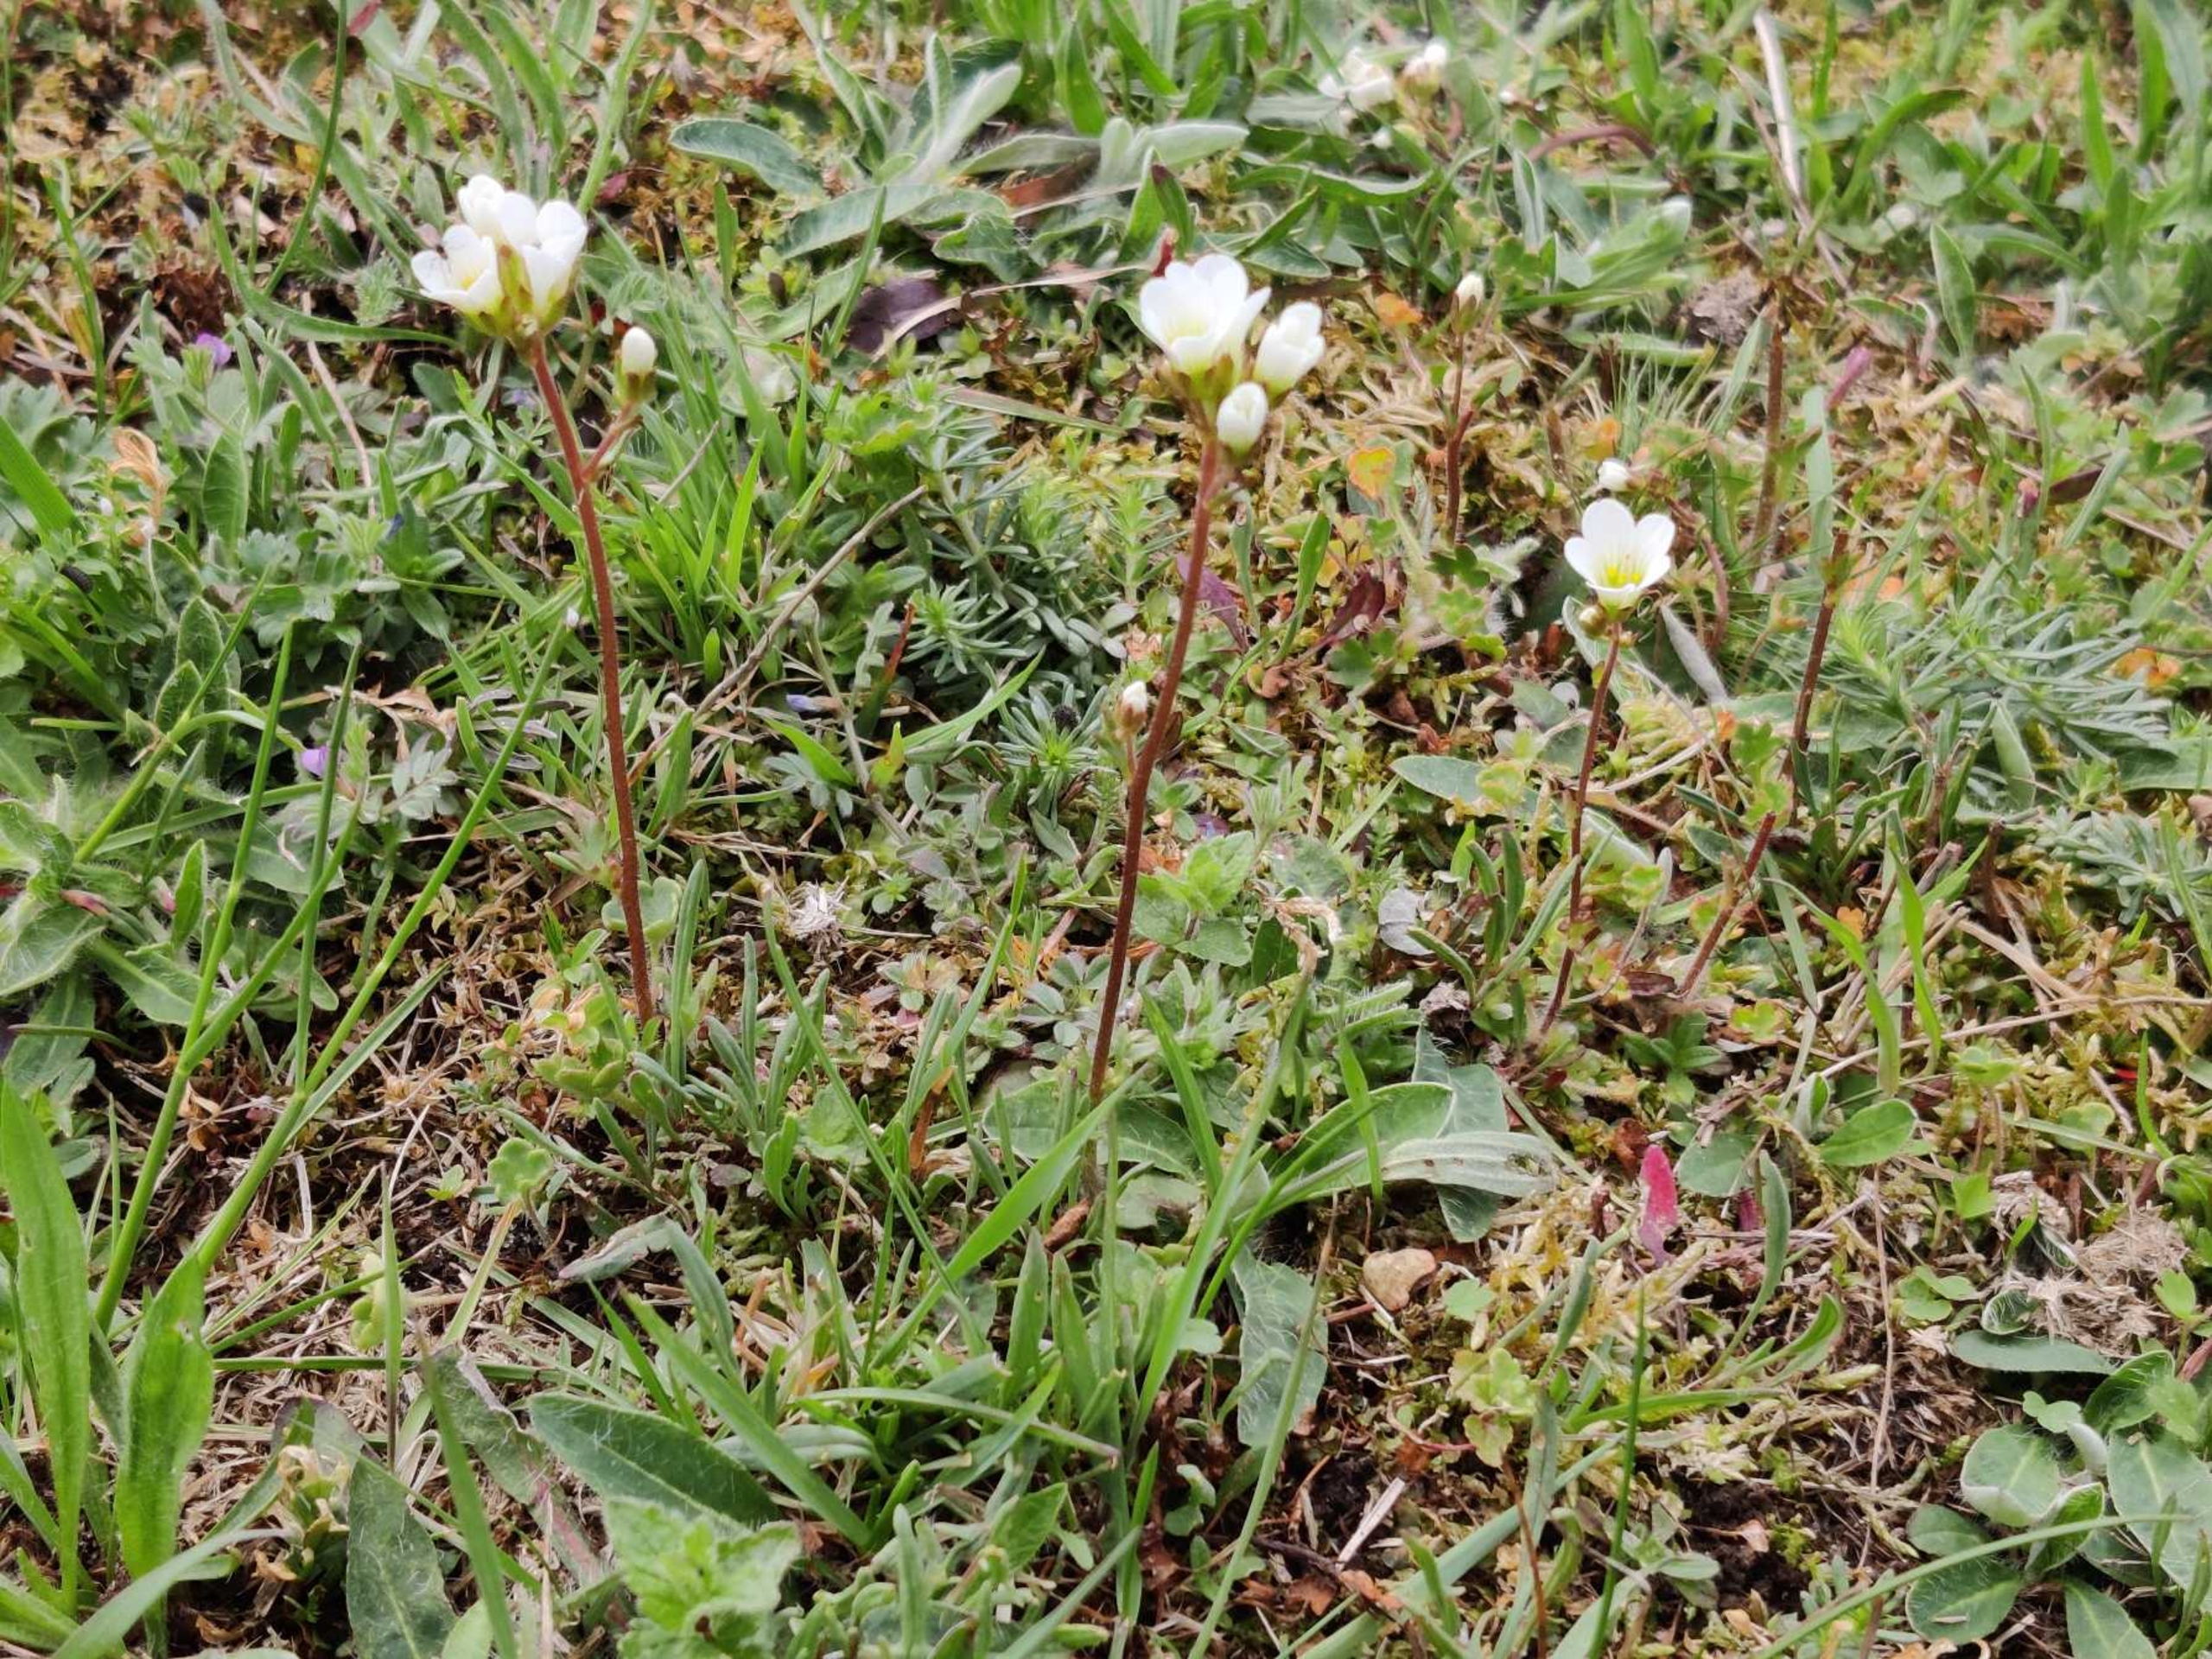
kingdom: Plantae
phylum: Tracheophyta
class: Magnoliopsida
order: Saxifragales
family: Saxifragaceae
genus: Saxifraga
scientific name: Saxifraga granulata
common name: Kornet stenbræk
